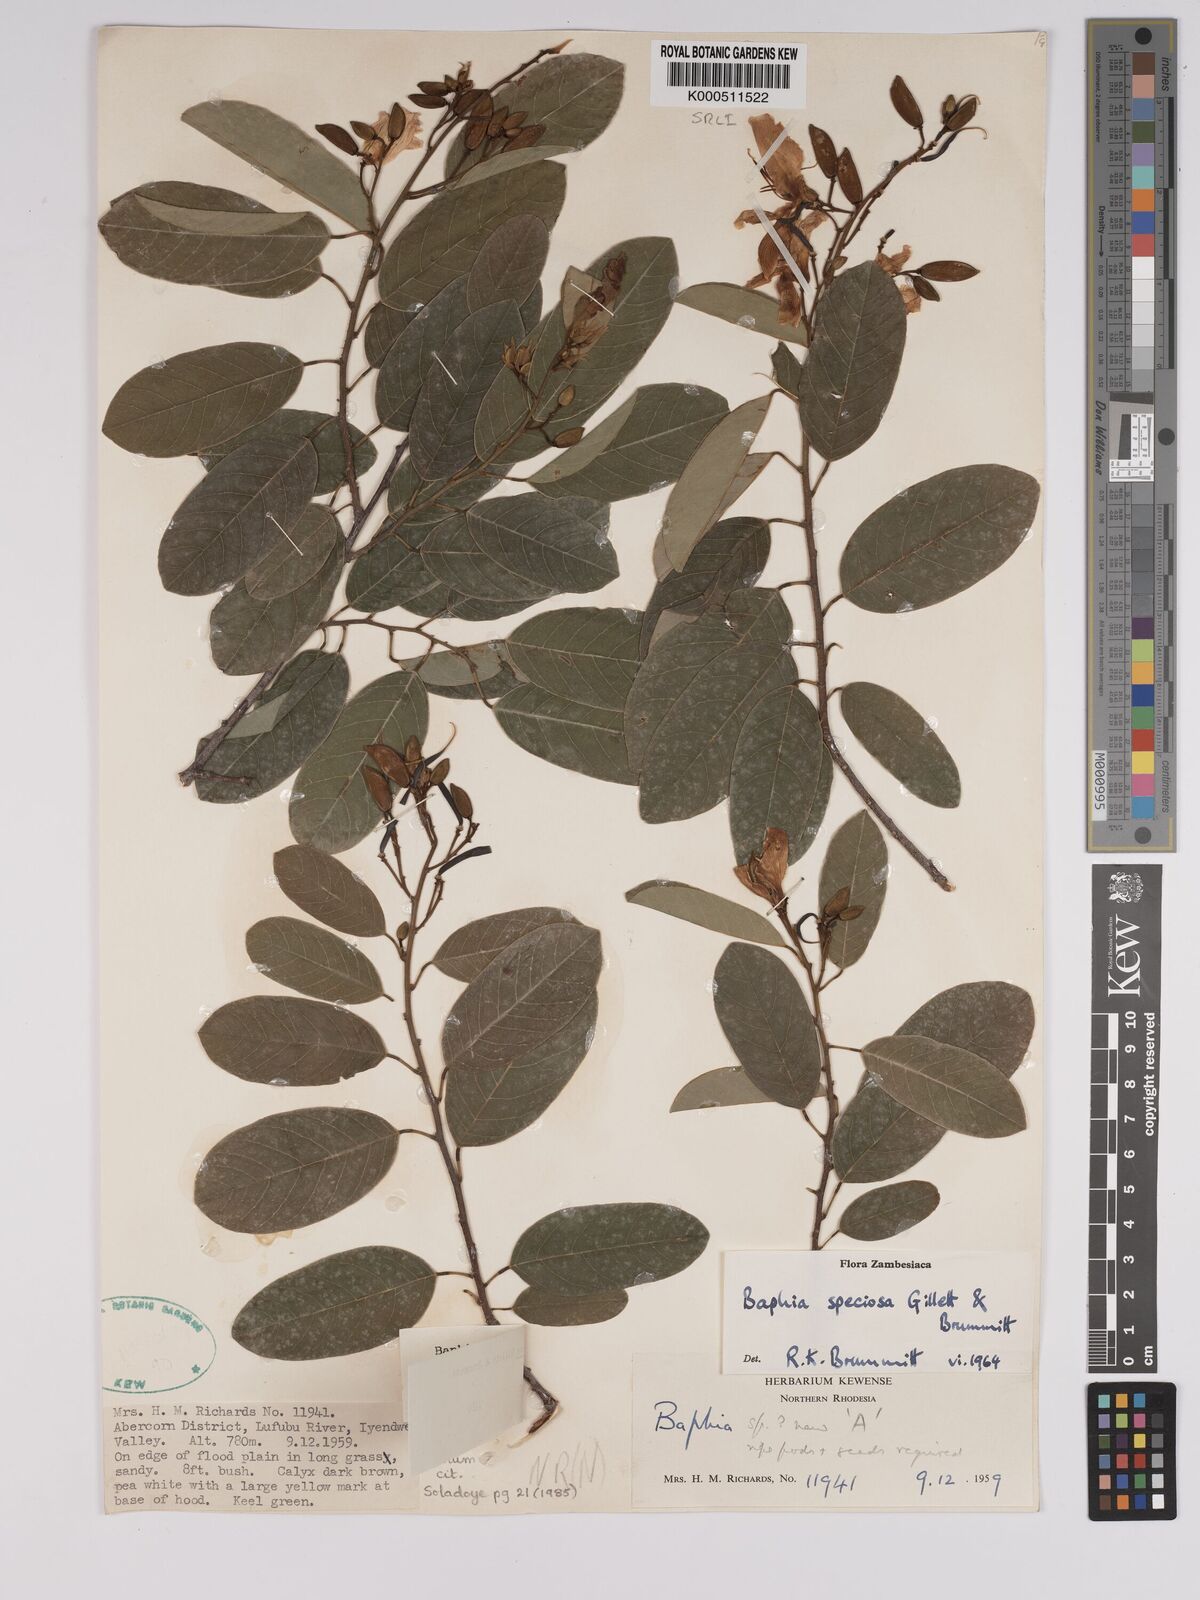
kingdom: Plantae
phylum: Tracheophyta
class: Magnoliopsida
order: Fabales
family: Fabaceae
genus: Baphia
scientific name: Baphia speciosa
